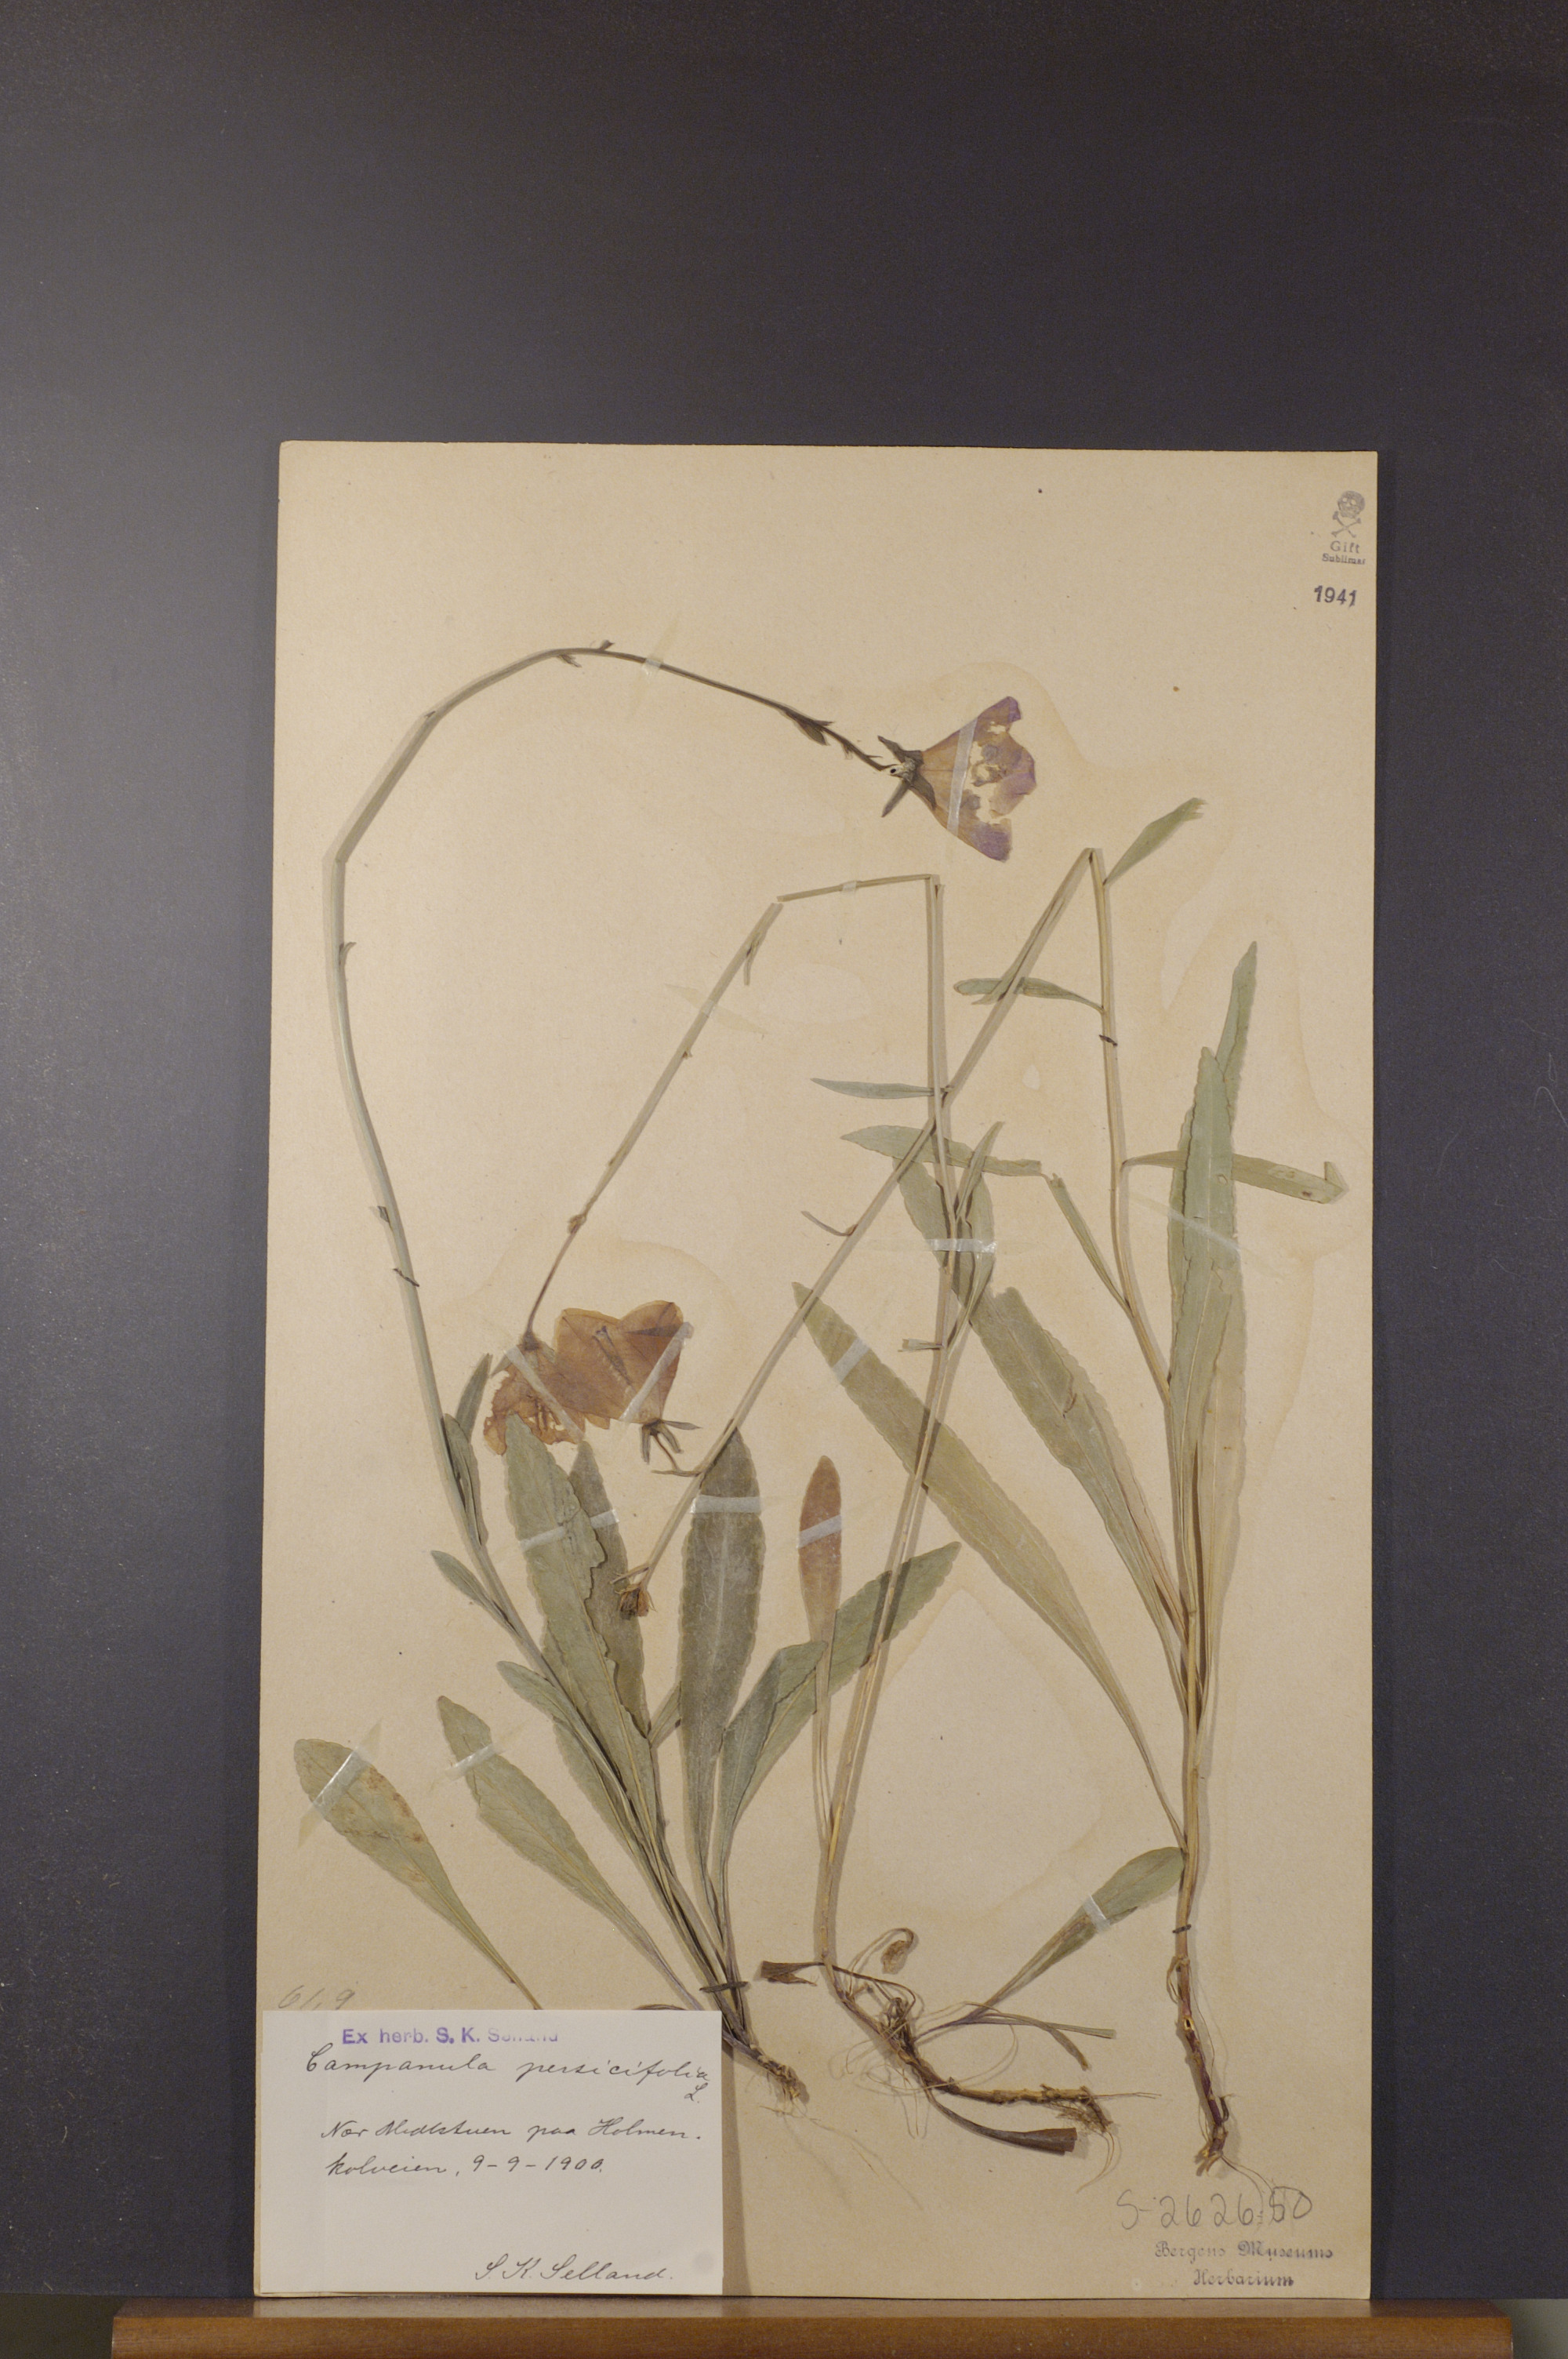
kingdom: Plantae
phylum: Tracheophyta
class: Magnoliopsida
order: Asterales
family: Campanulaceae
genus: Campanula
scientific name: Campanula persicifolia
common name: Peach-leaved bellflower
